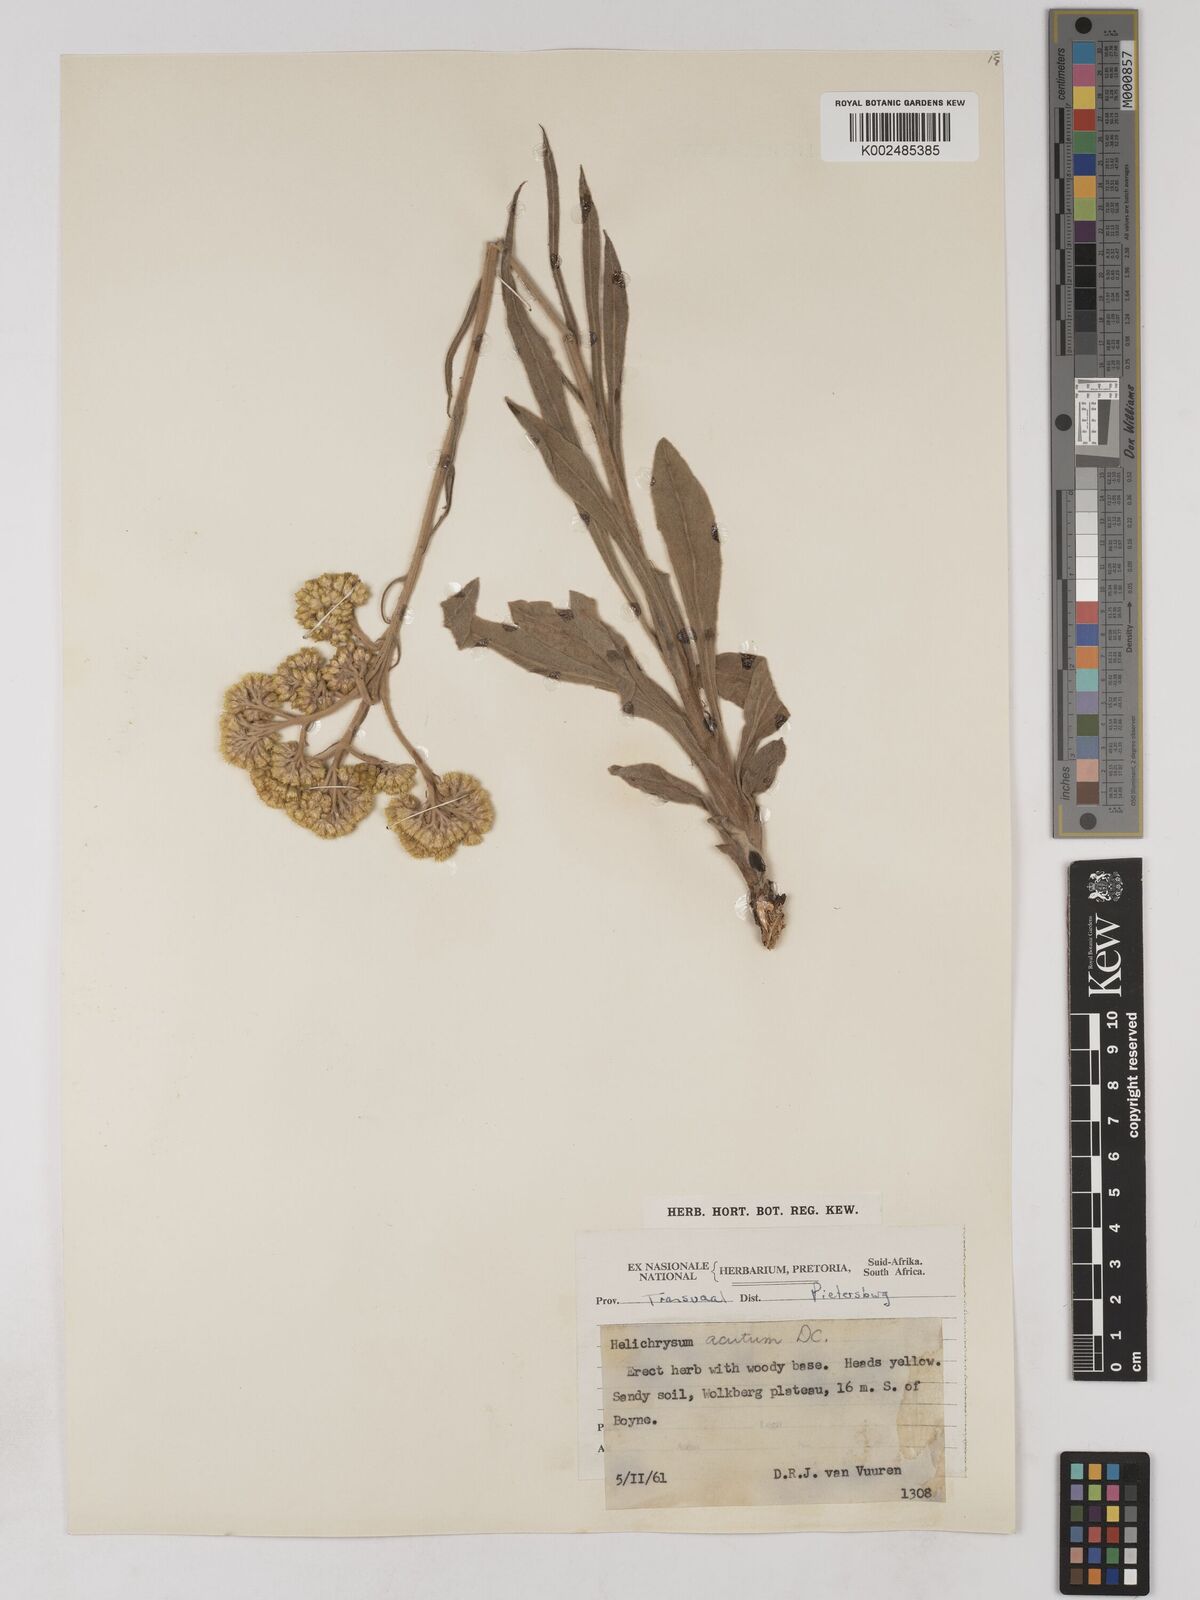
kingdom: Plantae
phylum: Tracheophyta
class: Magnoliopsida
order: Asterales
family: Asteraceae
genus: Helichrysum
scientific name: Helichrysum acutatum
